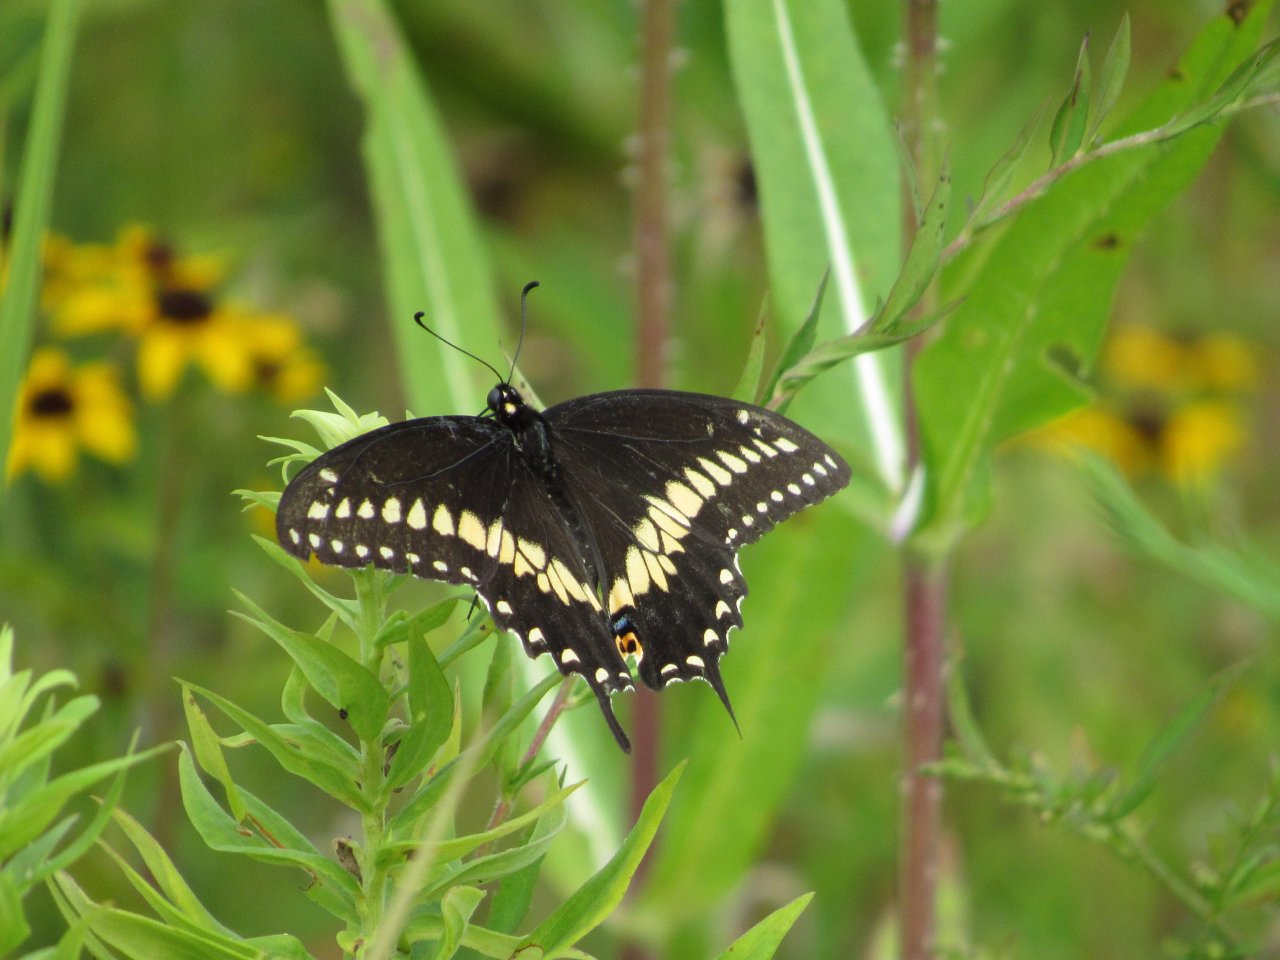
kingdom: Animalia
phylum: Arthropoda
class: Insecta
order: Lepidoptera
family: Papilionidae
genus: Papilio
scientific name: Papilio polyxenes
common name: Black Swallowtail
